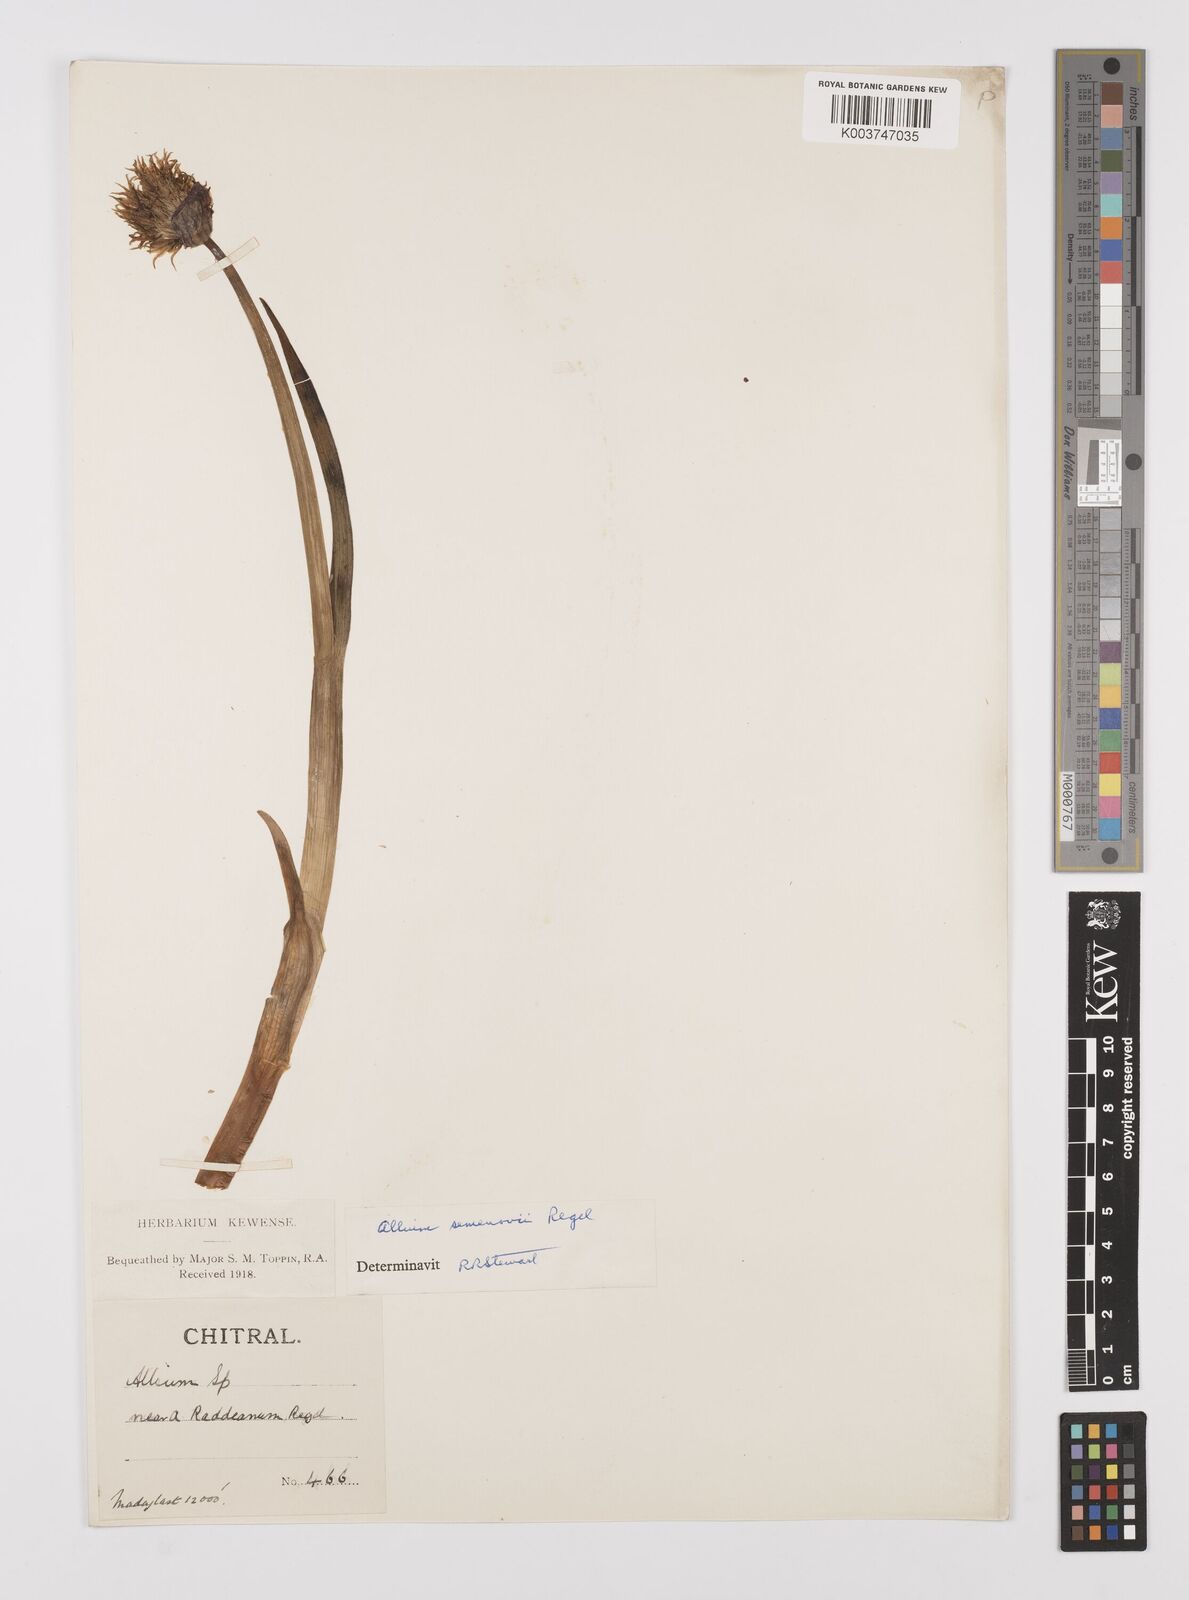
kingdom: Plantae
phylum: Tracheophyta
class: Liliopsida
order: Asparagales
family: Amaryllidaceae
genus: Allium
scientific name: Allium semenovii
